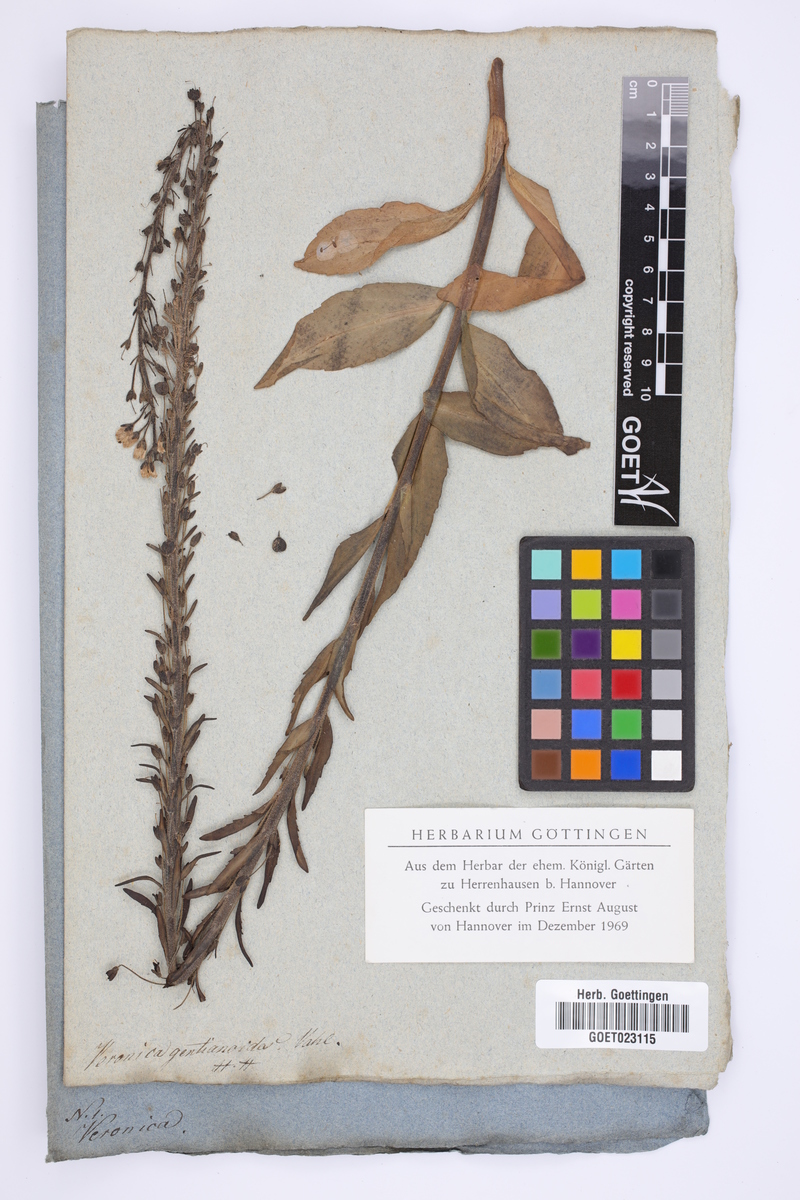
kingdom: Plantae
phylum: Tracheophyta
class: Magnoliopsida
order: Lamiales
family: Plantaginaceae
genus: Veronica
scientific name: Veronica gentianoides
